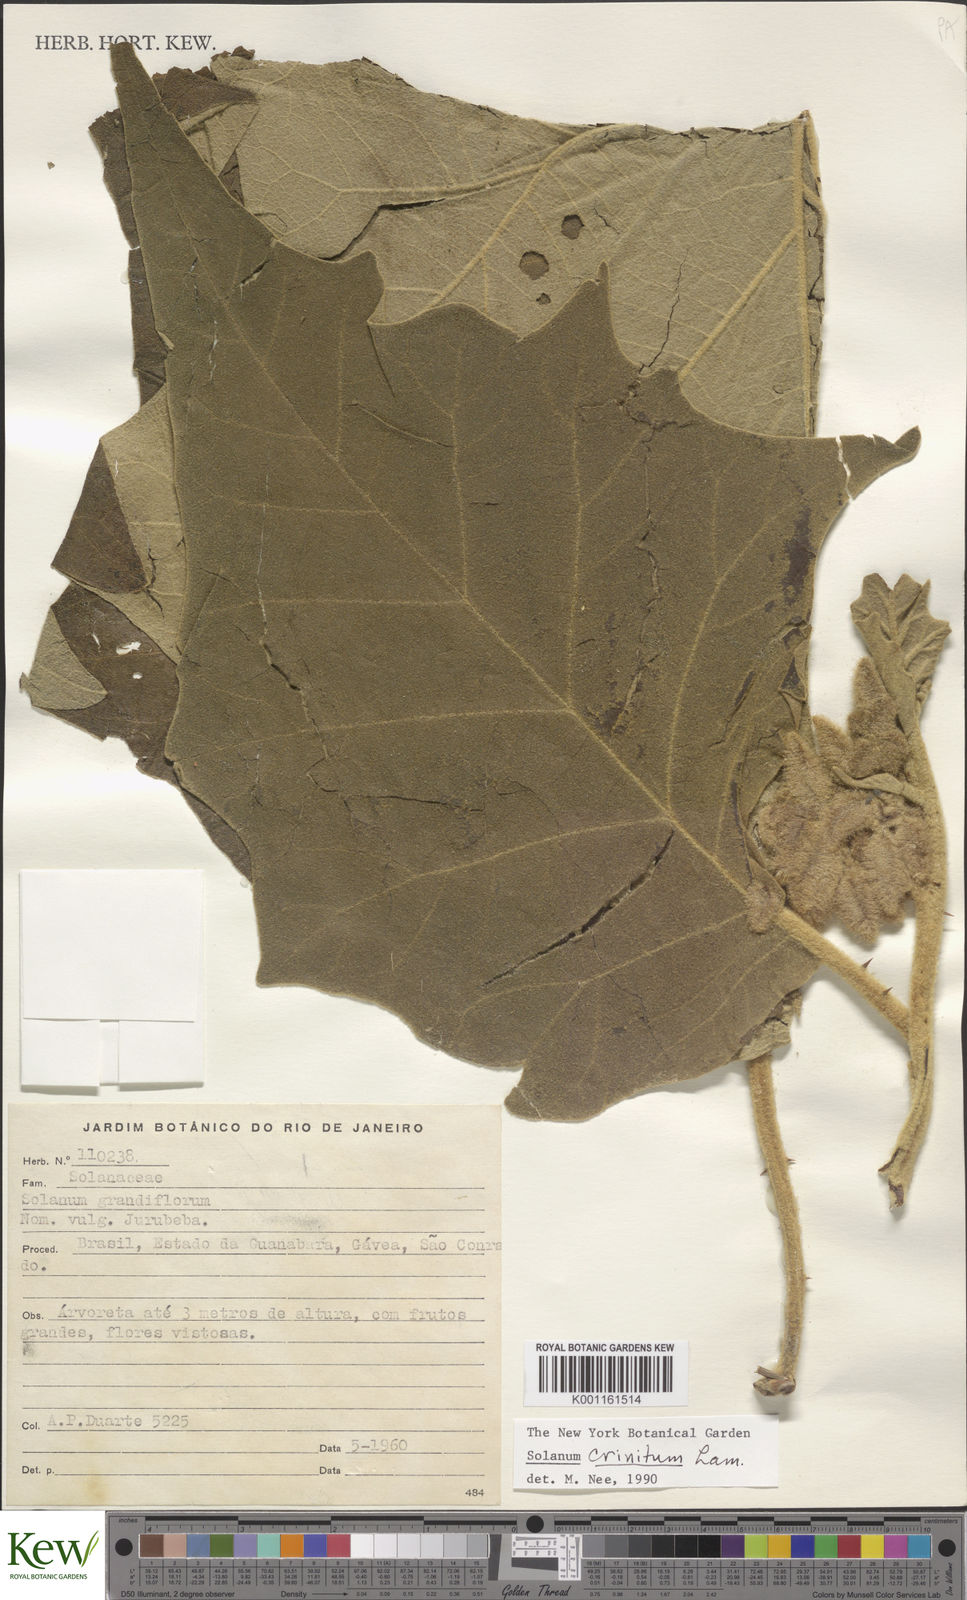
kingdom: Plantae
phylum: Tracheophyta
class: Magnoliopsida
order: Solanales
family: Solanaceae
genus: Solanum
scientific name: Solanum crinitum
